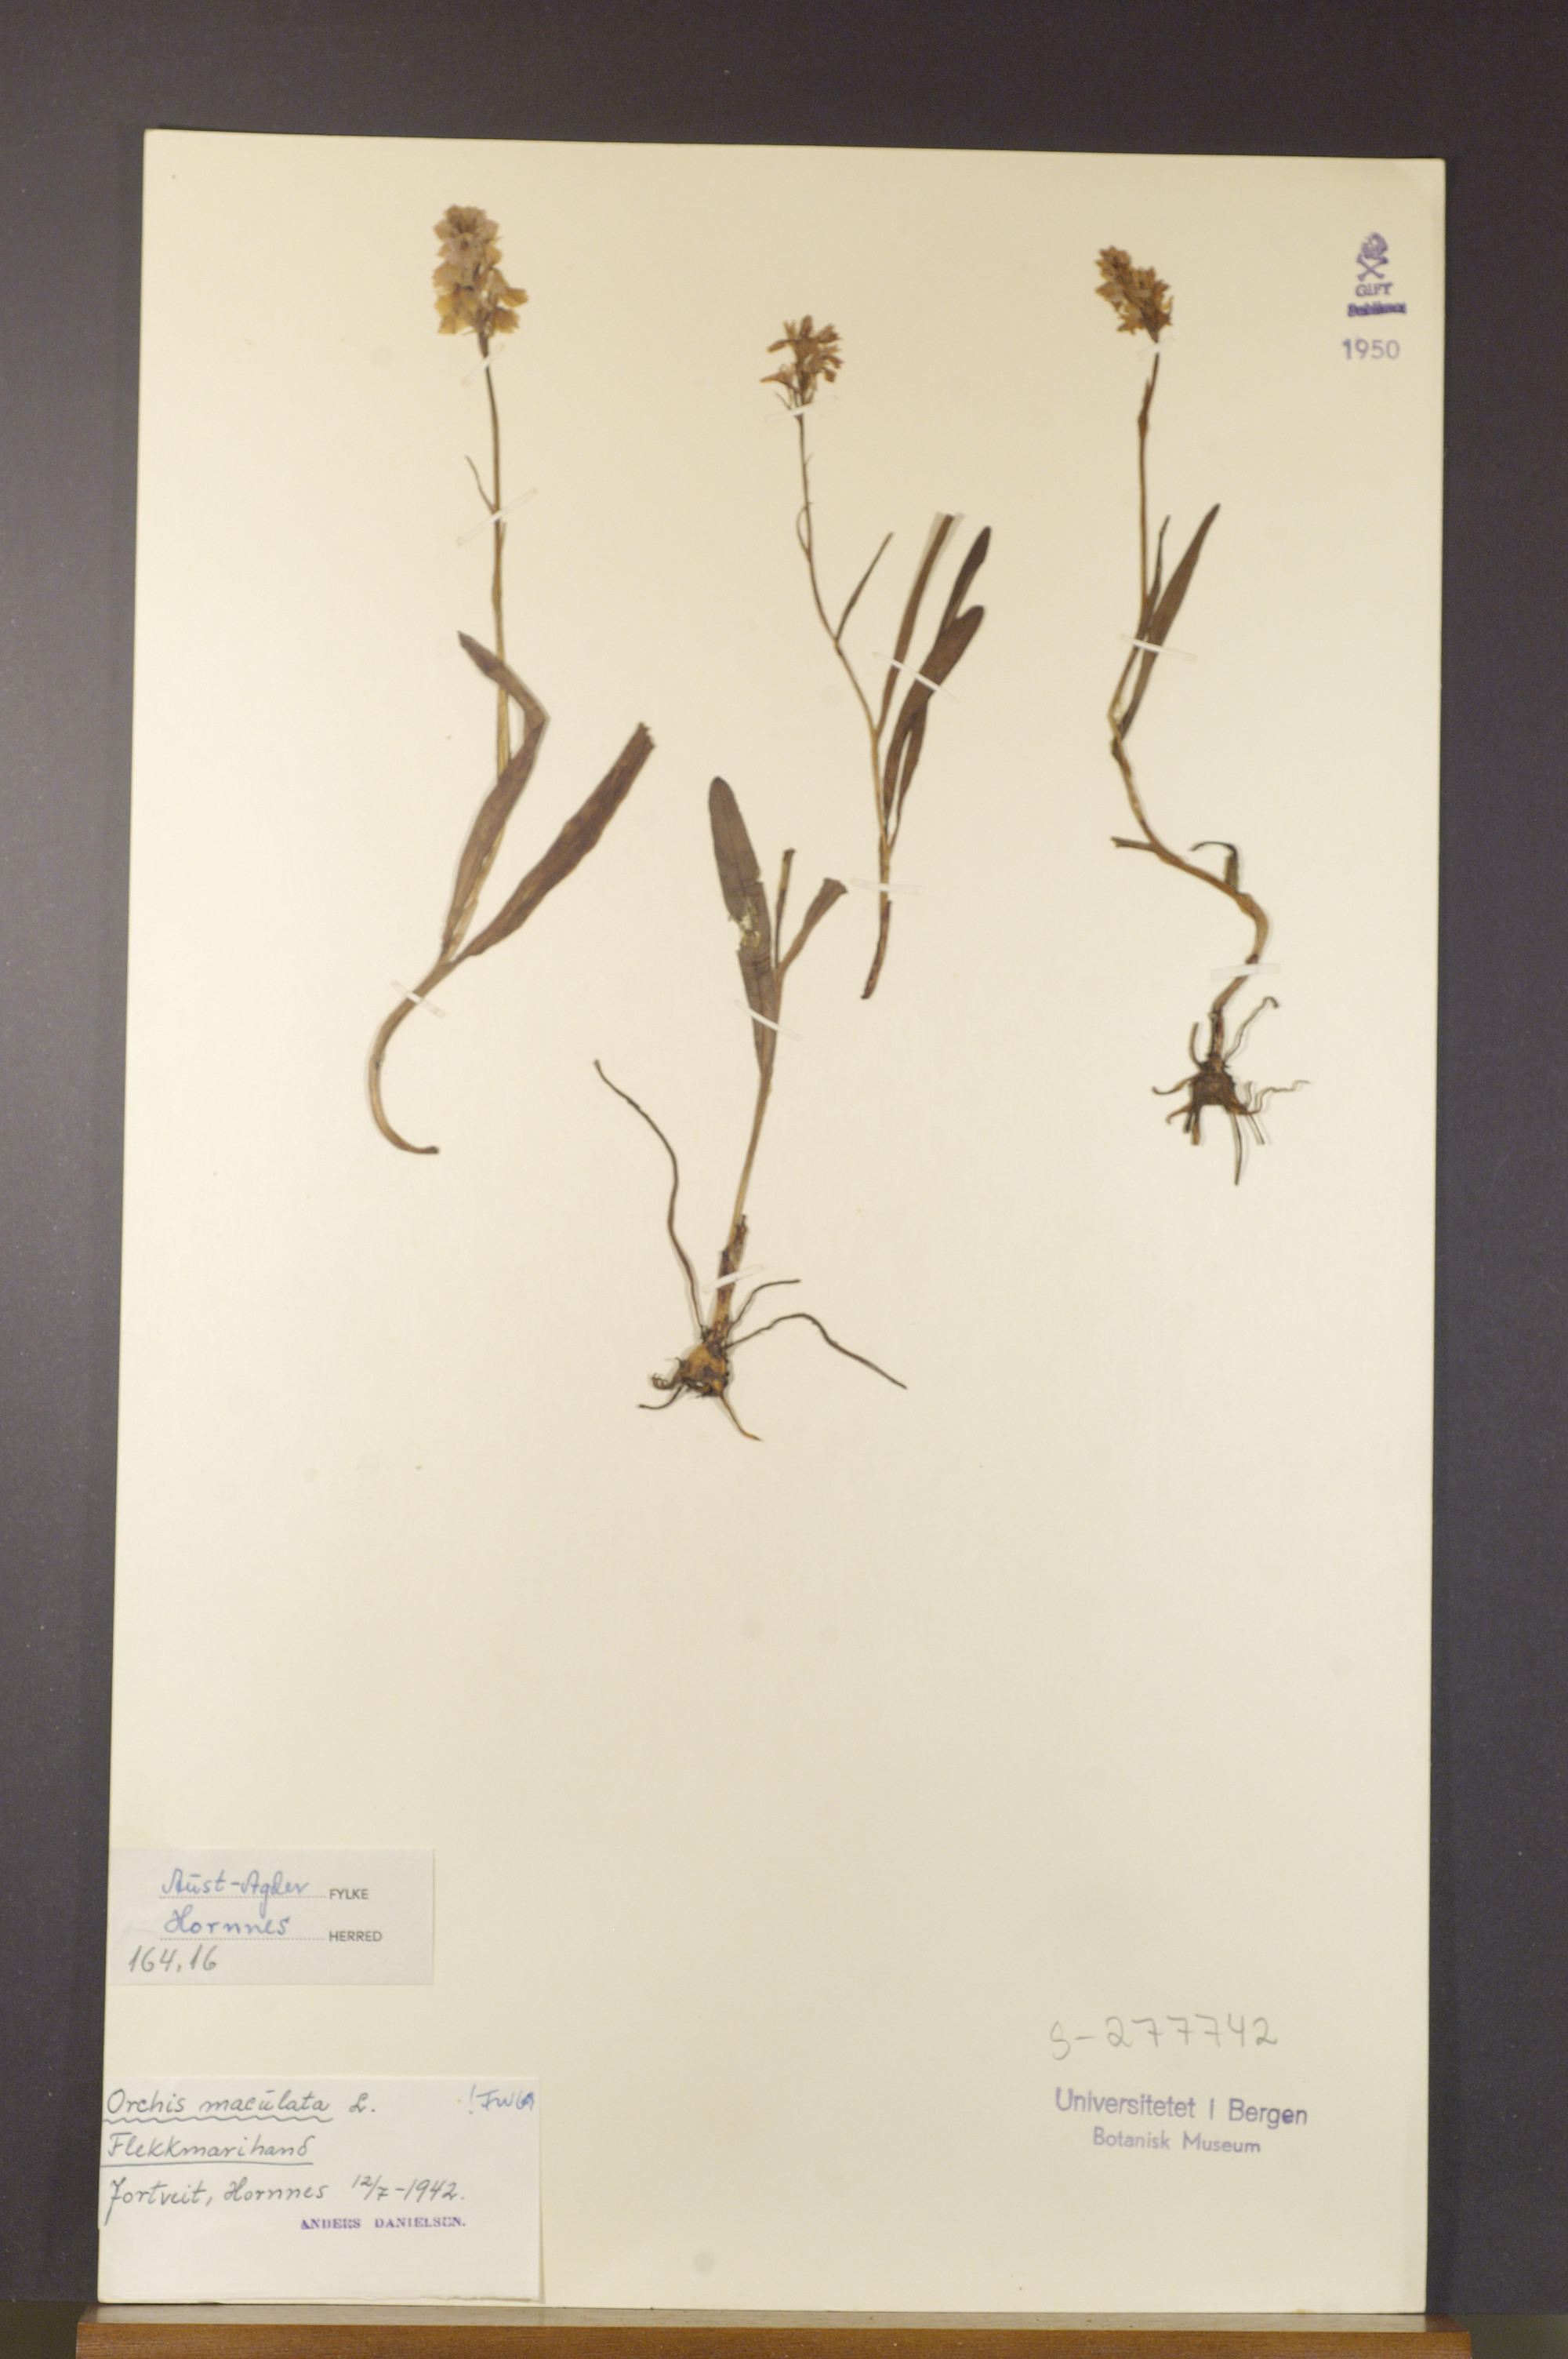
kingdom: Plantae
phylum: Tracheophyta
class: Liliopsida
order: Asparagales
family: Orchidaceae
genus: Dactylorhiza
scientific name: Dactylorhiza maculata
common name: Heath spotted-orchid
